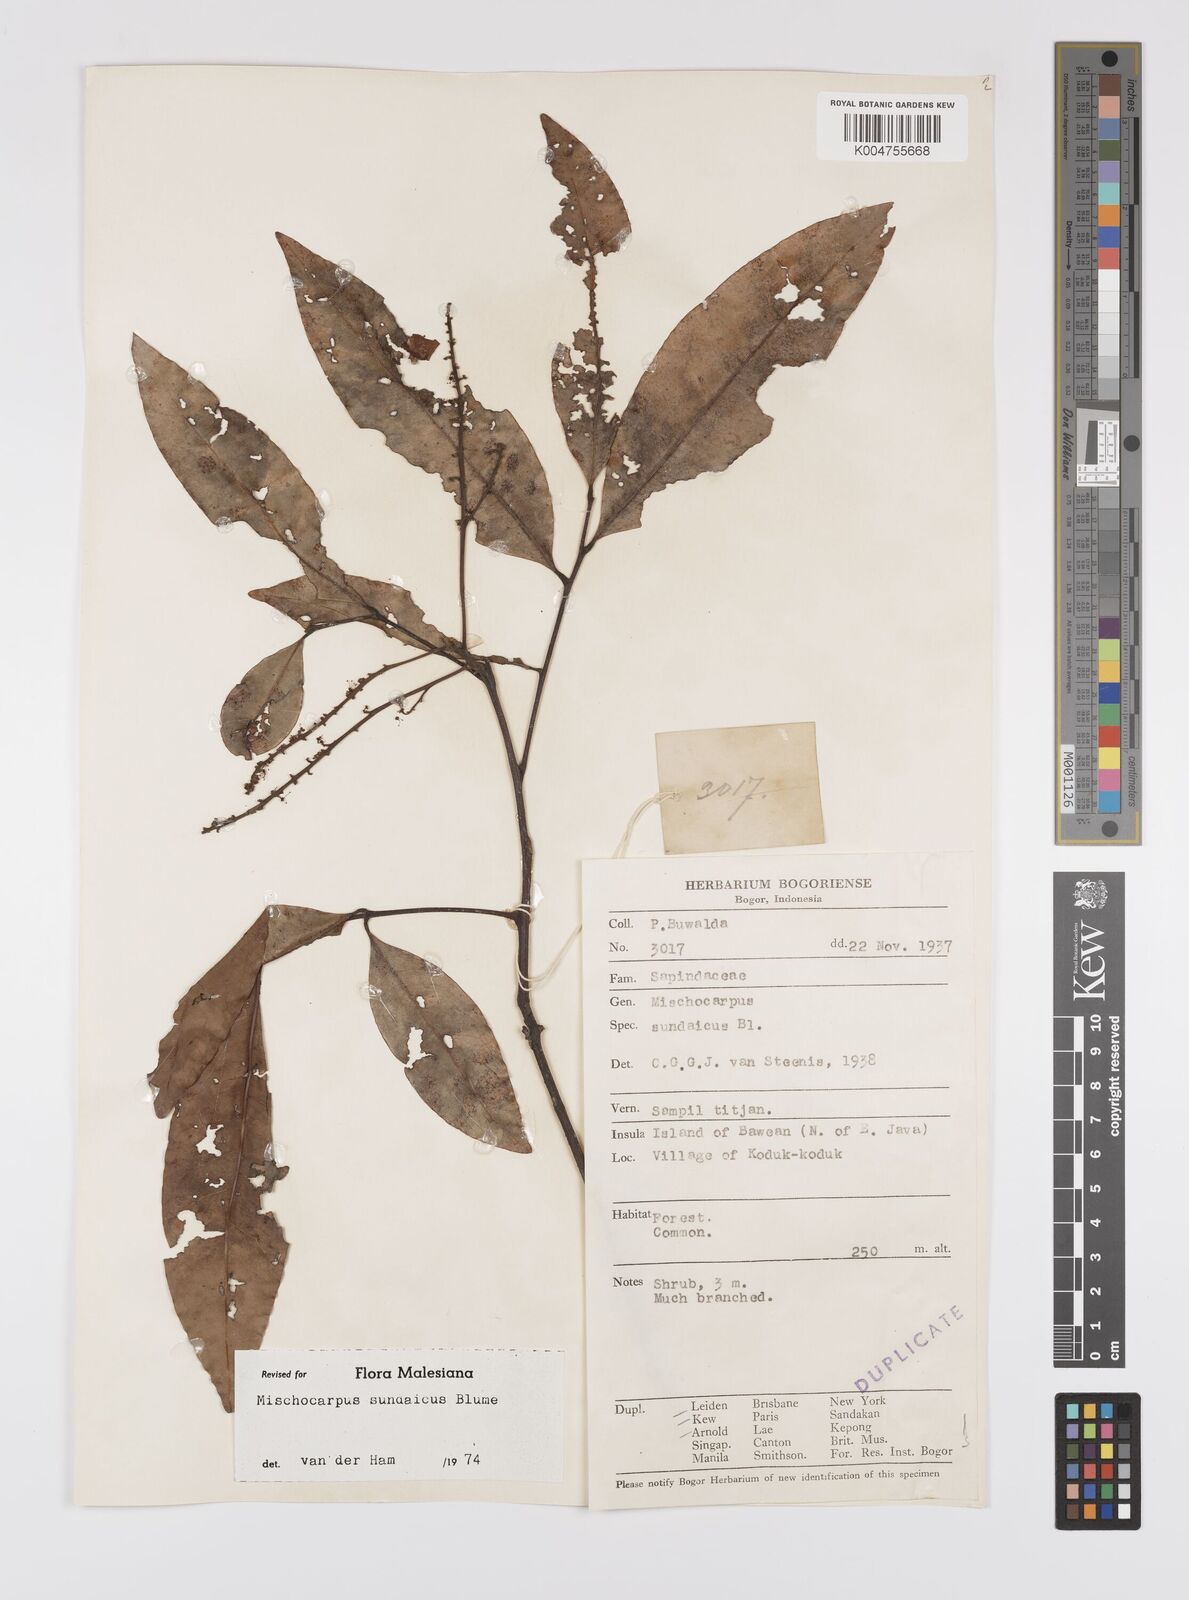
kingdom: Plantae
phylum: Tracheophyta
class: Magnoliopsida
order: Sapindales
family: Sapindaceae
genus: Mischocarpus
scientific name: Mischocarpus sundaicus
